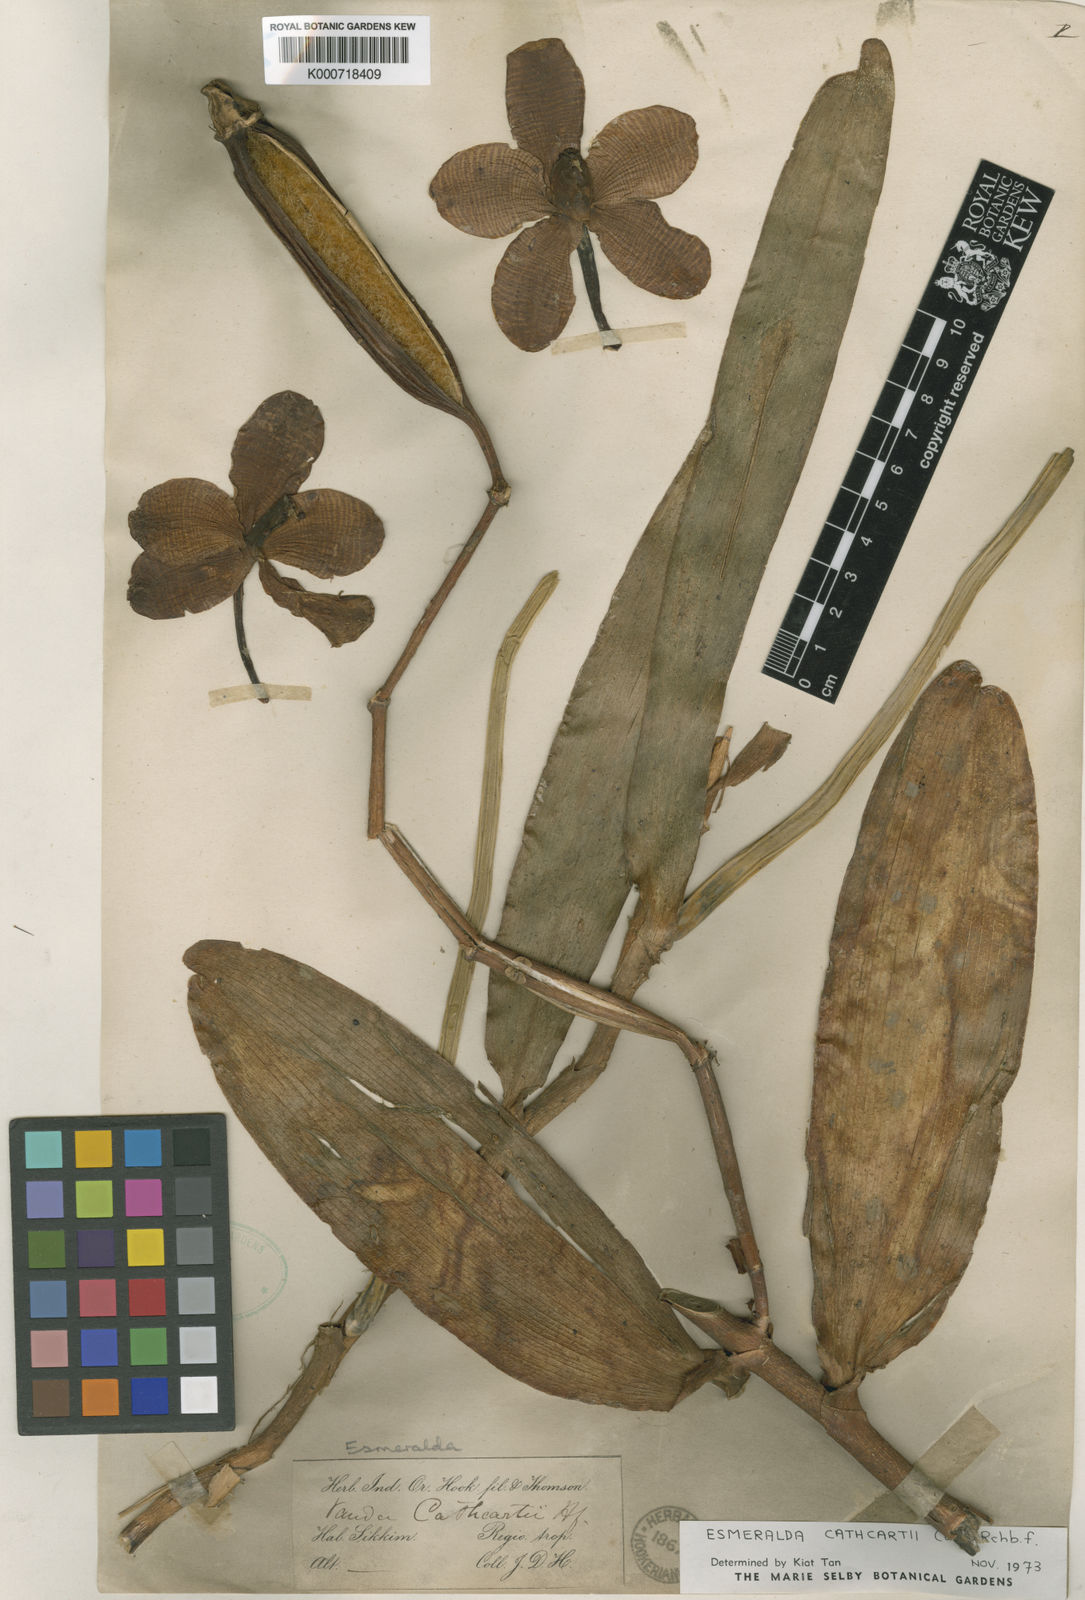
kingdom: Plantae
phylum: Tracheophyta
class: Liliopsida
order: Asparagales
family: Orchidaceae
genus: Arachnis
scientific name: Arachnis cathcartii
